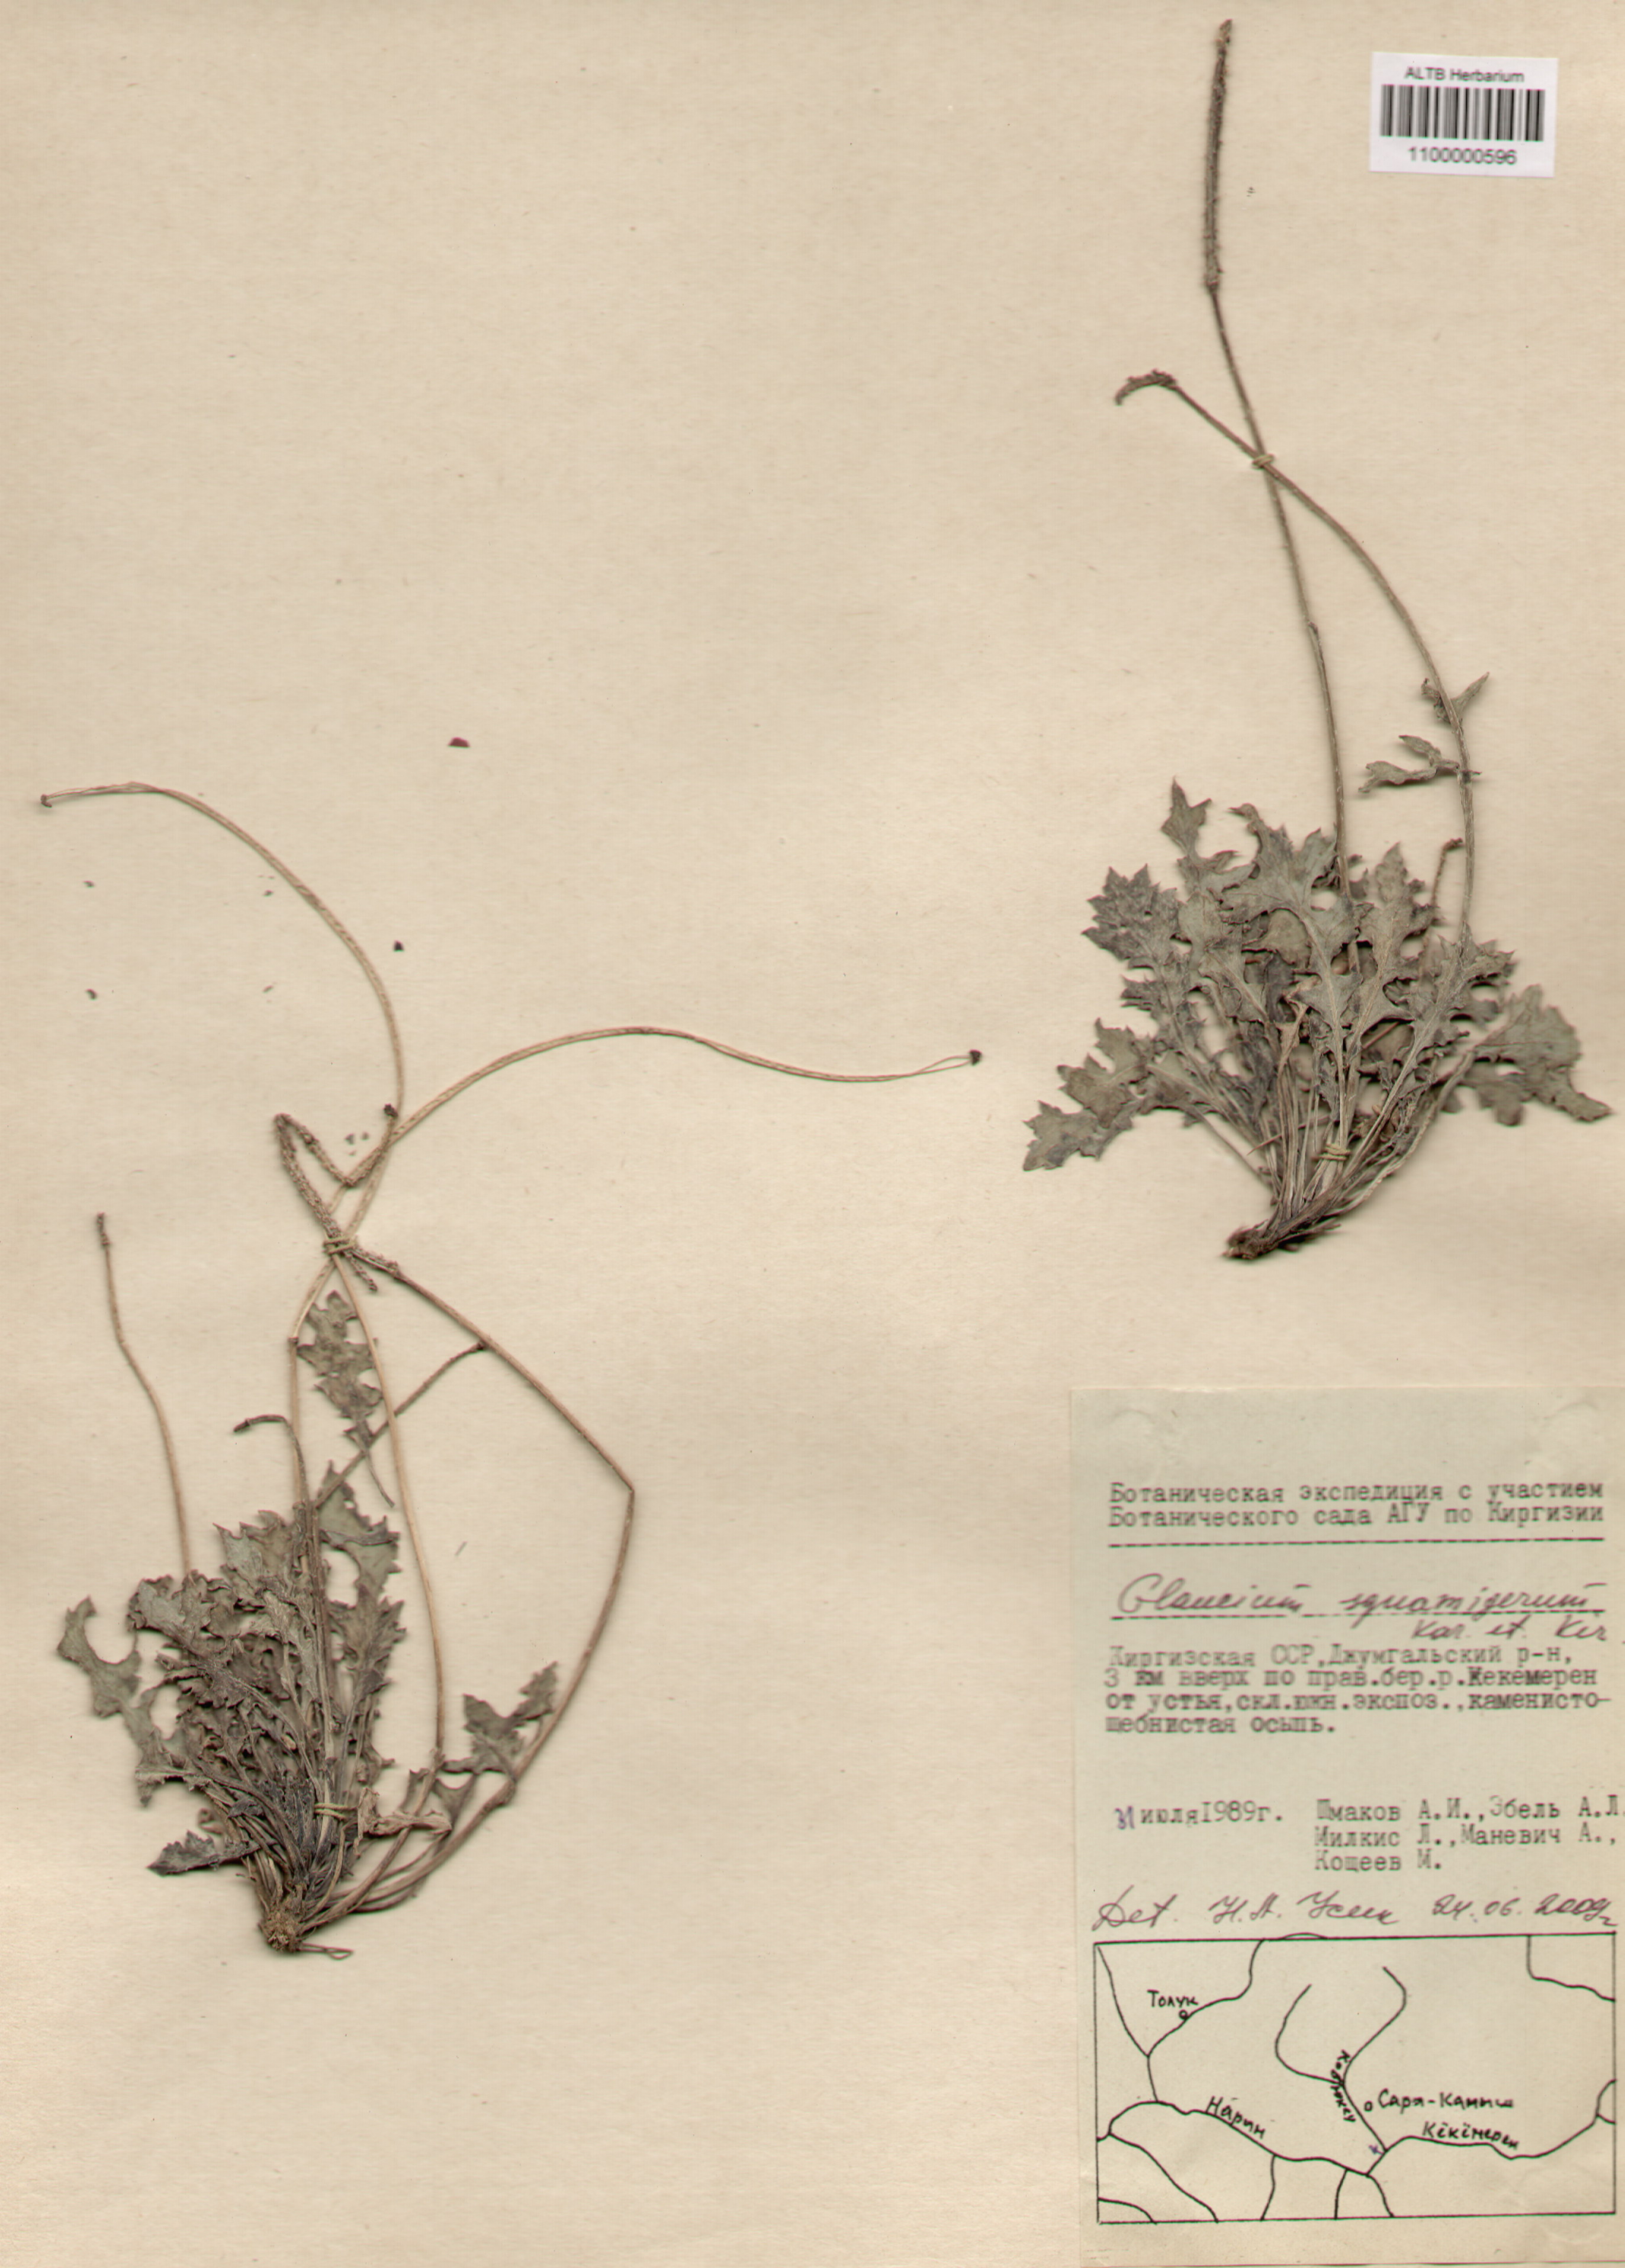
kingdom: Plantae
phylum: Tracheophyta
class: Magnoliopsida
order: Ranunculales
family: Papaveraceae
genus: Glaucium
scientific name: Glaucium squamigerum
